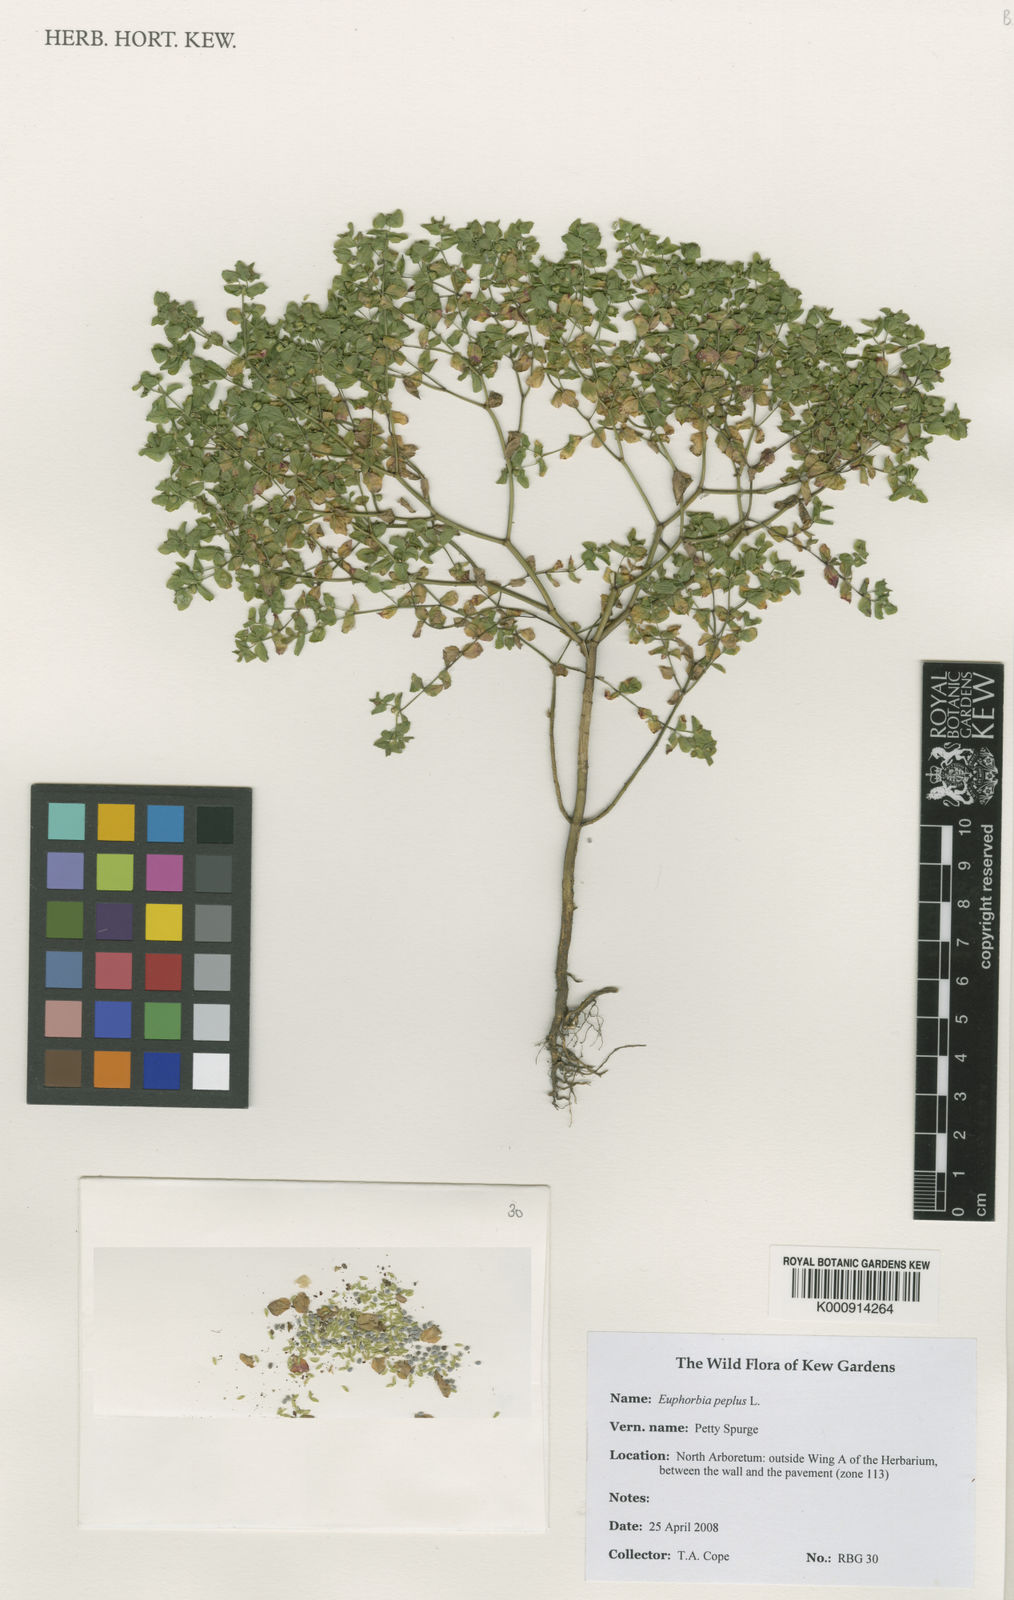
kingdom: Plantae
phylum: Tracheophyta
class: Magnoliopsida
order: Malpighiales
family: Euphorbiaceae
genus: Euphorbia
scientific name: Euphorbia peplus
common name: Petty spurge
